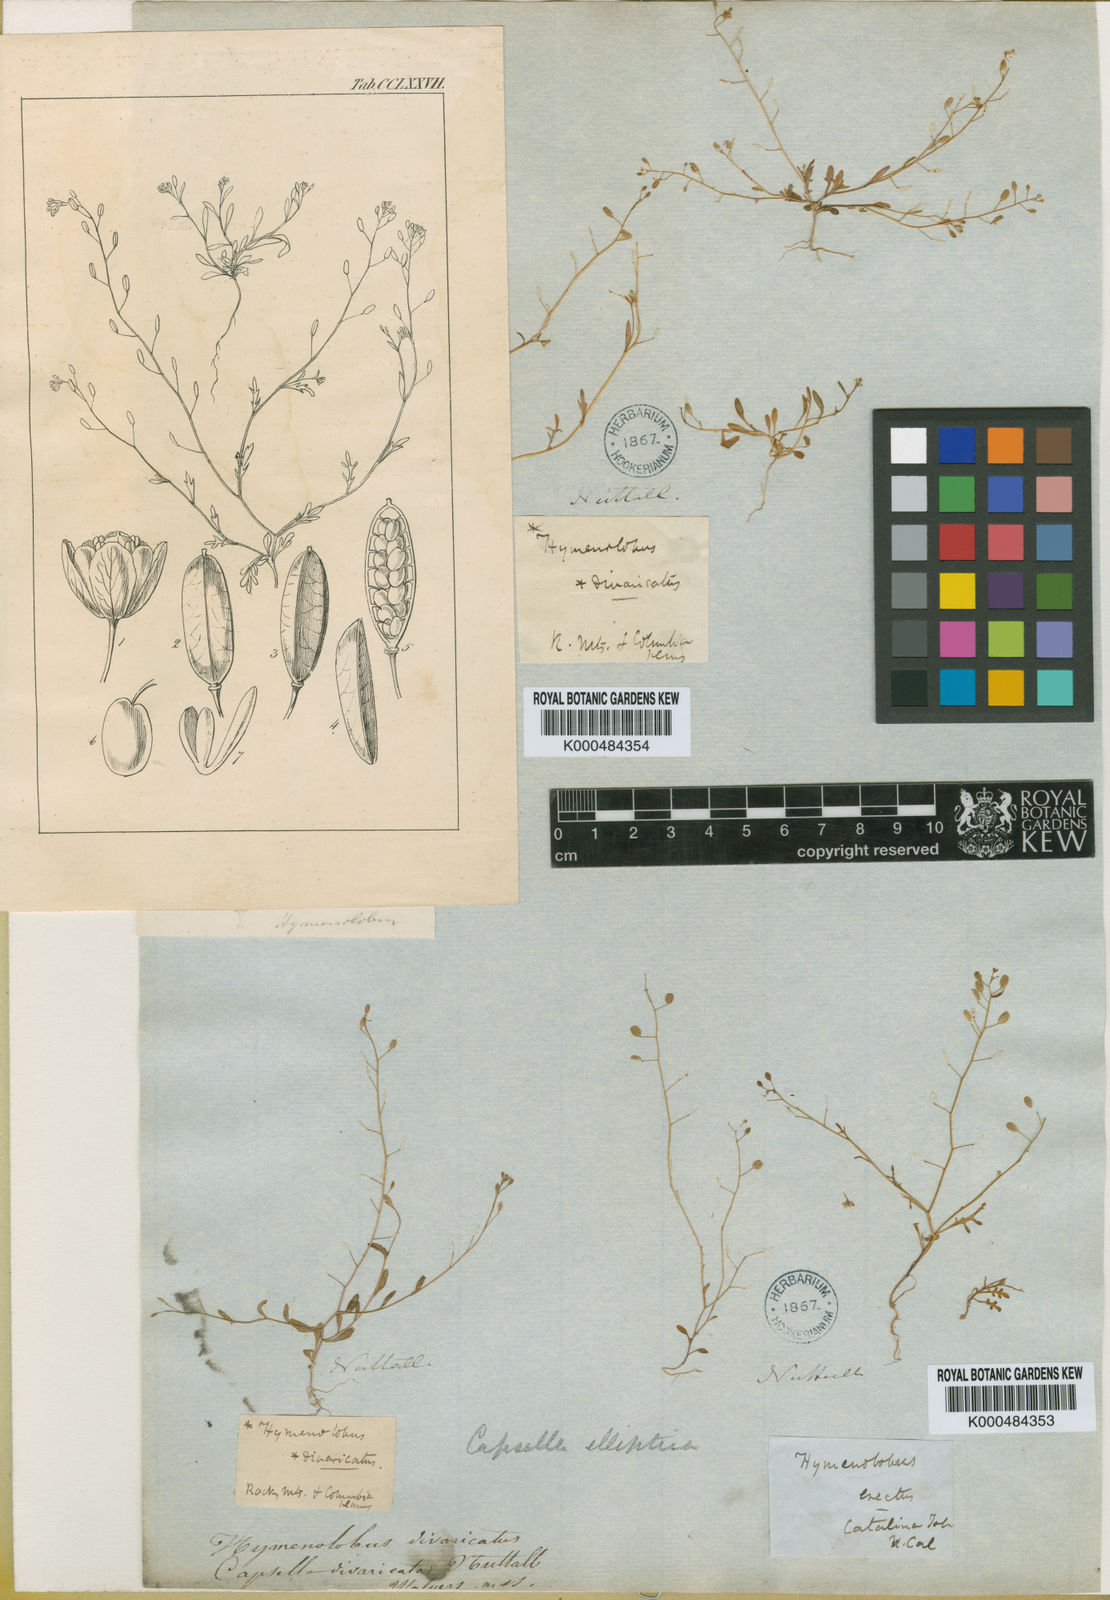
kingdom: Plantae
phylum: Tracheophyta
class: Magnoliopsida
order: Brassicales
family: Brassicaceae
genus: Hornungia
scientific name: Hornungia procumbens
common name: Oval purse
